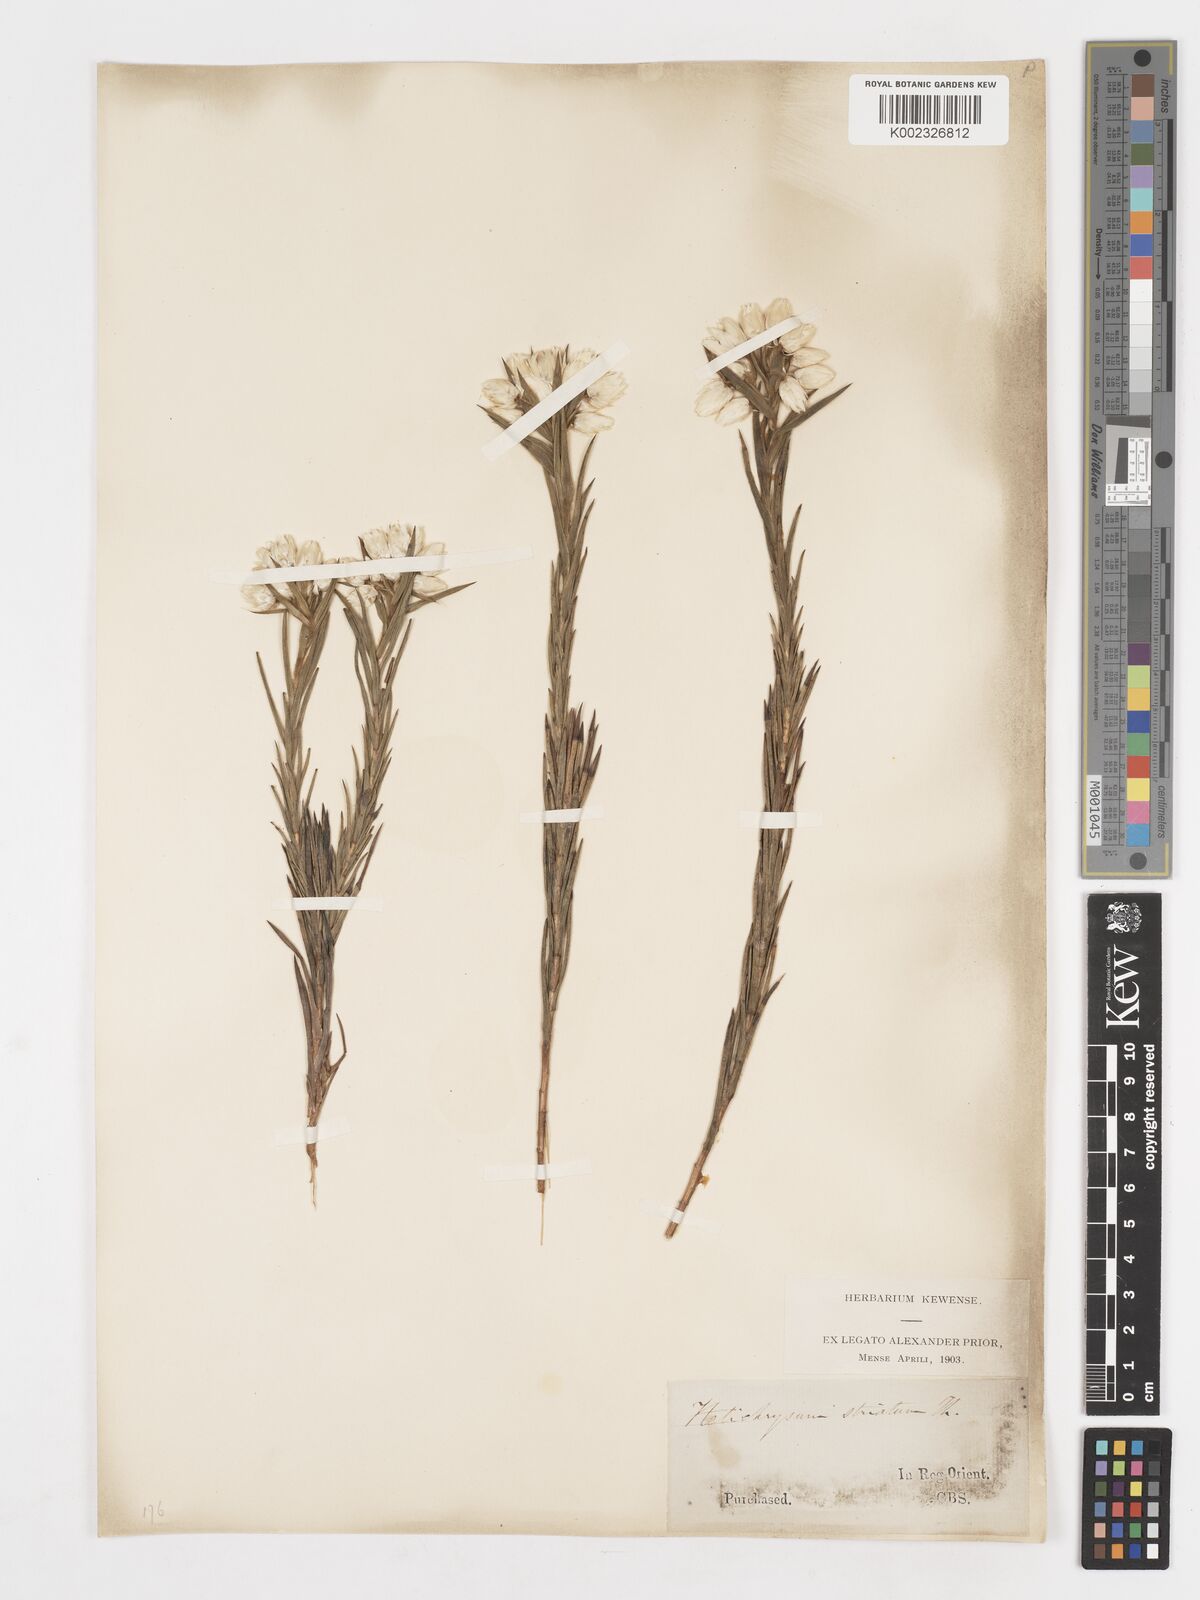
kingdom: Plantae
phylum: Tracheophyta
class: Magnoliopsida
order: Asterales
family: Asteraceae
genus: Achyranthemum
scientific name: Achyranthemum striatum
